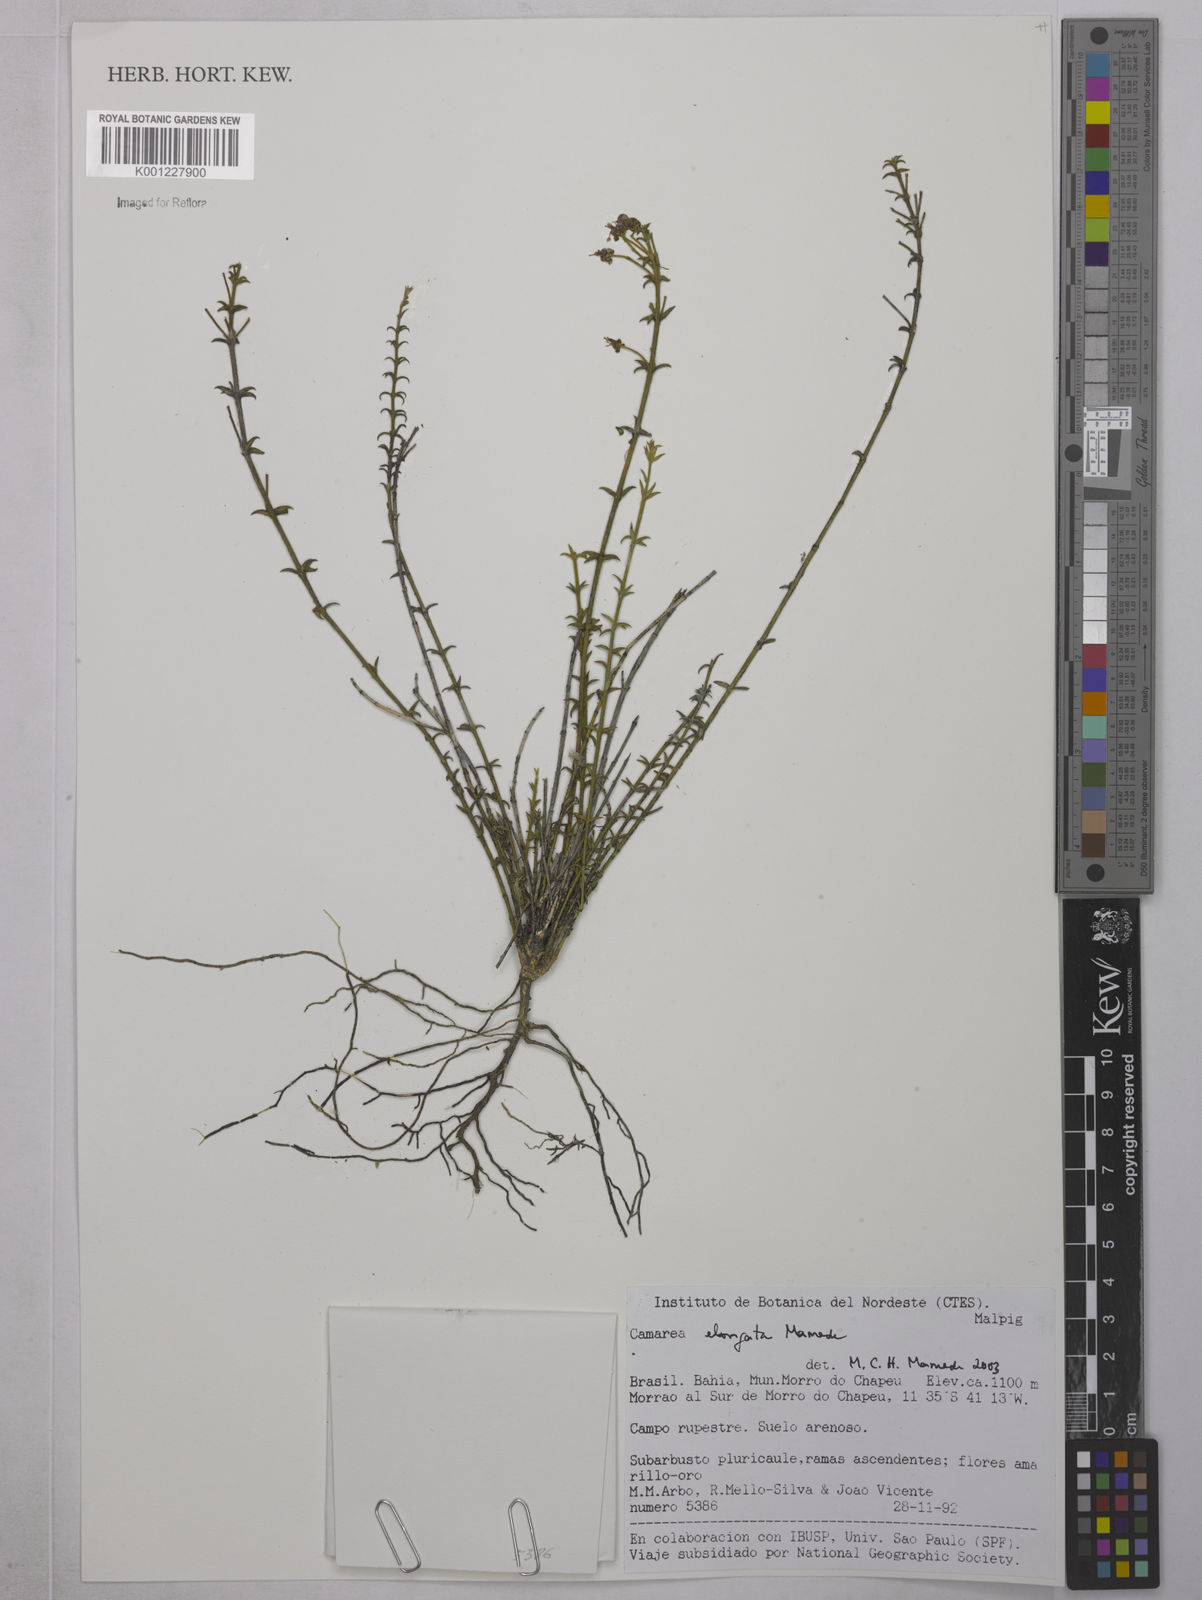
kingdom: Plantae
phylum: Tracheophyta
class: Magnoliopsida
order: Malpighiales
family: Malpighiaceae
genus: Camarea
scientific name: Camarea elongata
